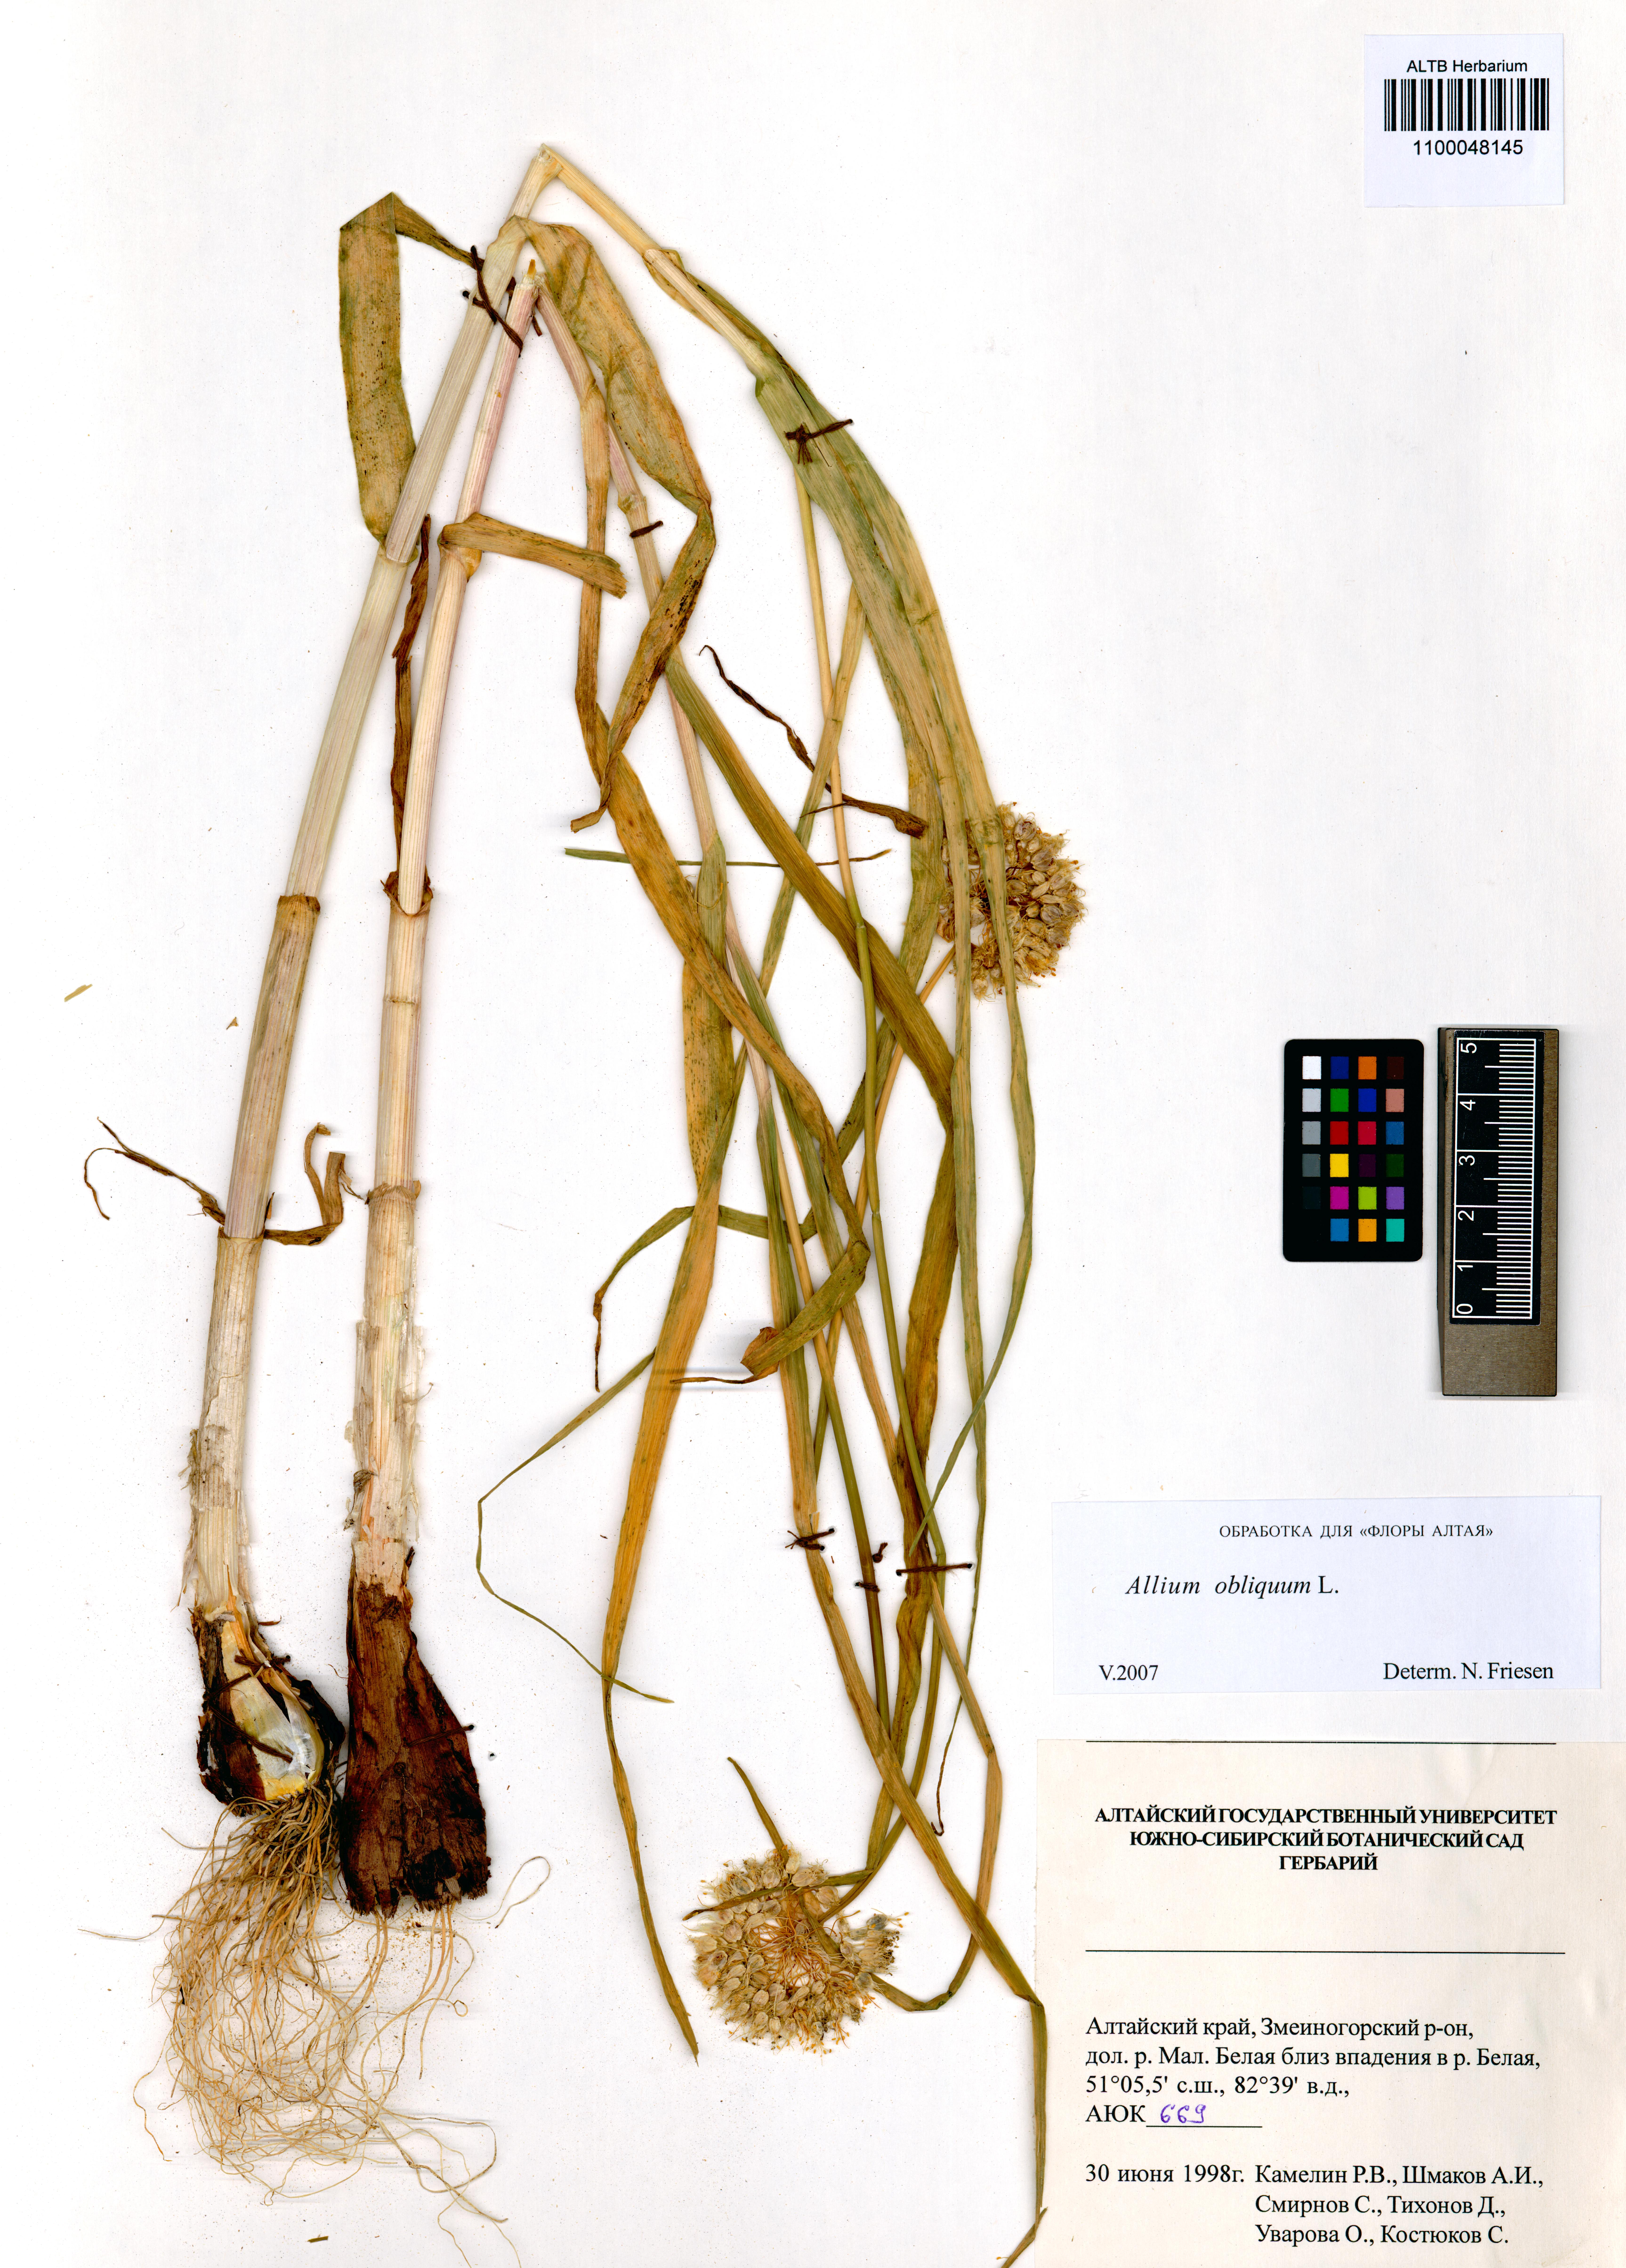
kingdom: Plantae
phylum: Tracheophyta
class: Liliopsida
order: Asparagales
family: Amaryllidaceae
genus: Allium
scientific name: Allium obliquum
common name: Oblique onion
